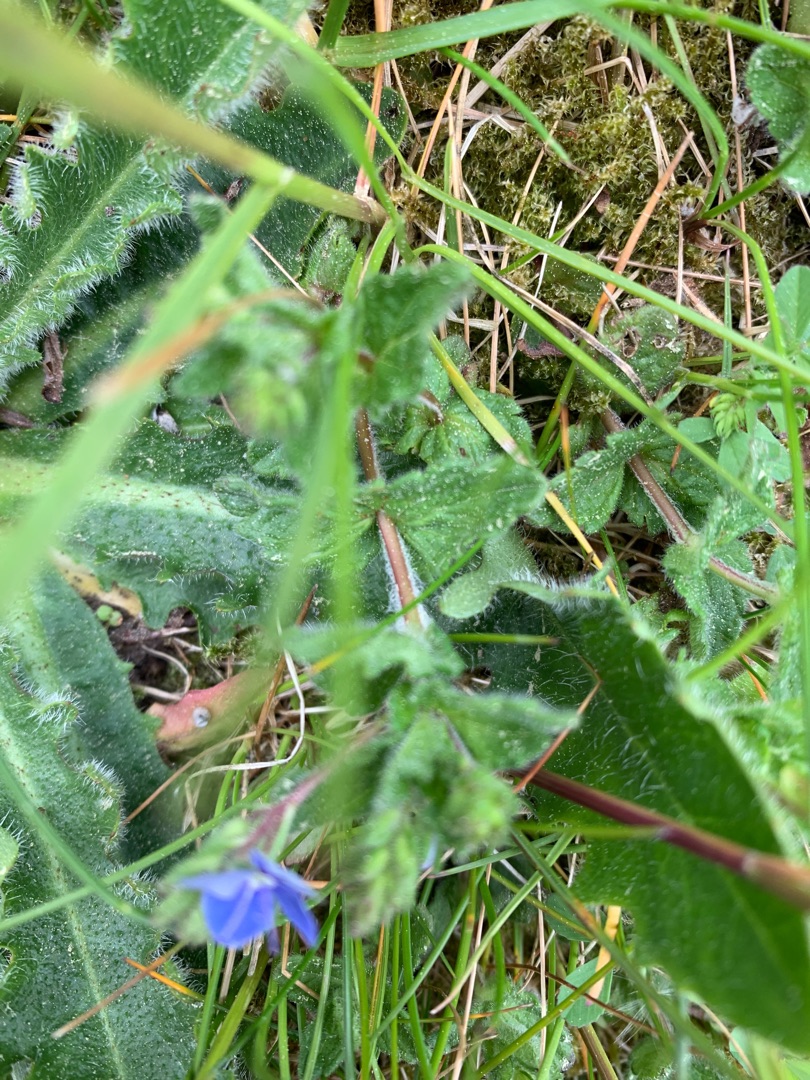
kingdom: Plantae
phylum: Tracheophyta
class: Magnoliopsida
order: Lamiales
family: Plantaginaceae
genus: Veronica
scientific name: Veronica chamaedrys
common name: Tveskægget ærenpris
